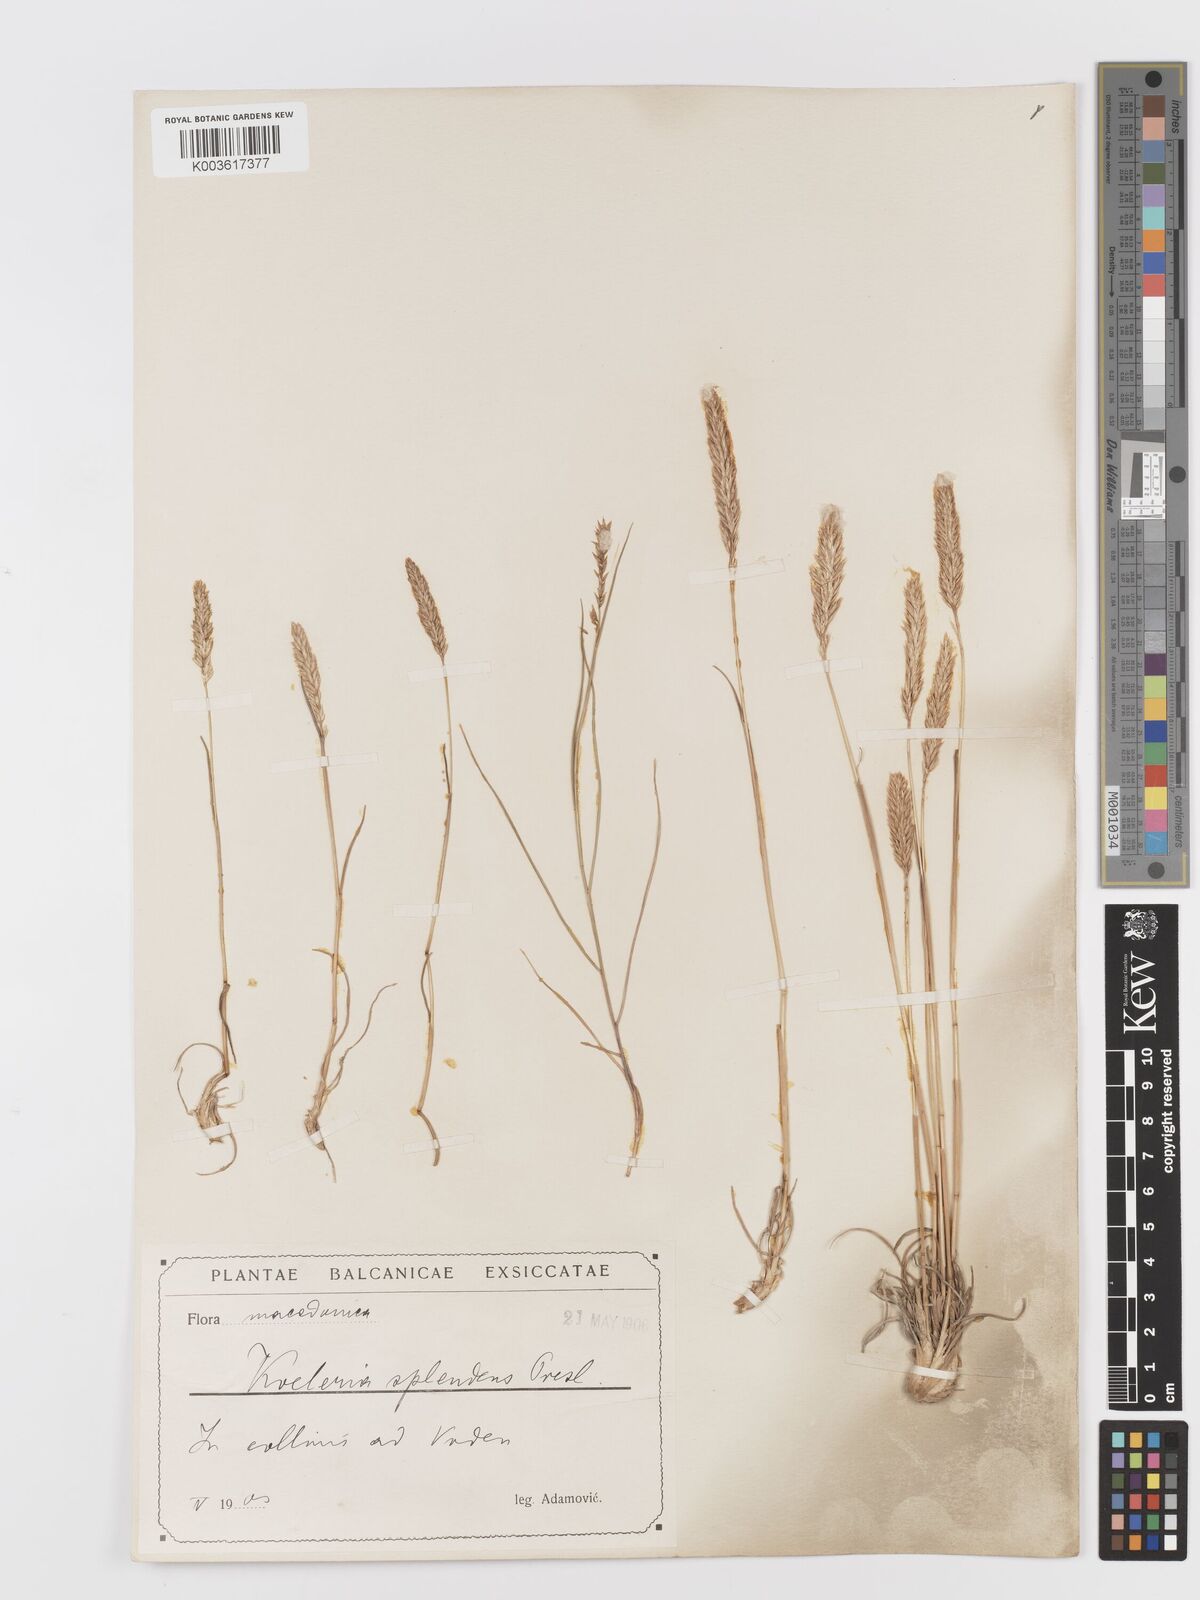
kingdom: Plantae
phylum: Tracheophyta
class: Liliopsida
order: Poales
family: Poaceae
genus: Koeleria
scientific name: Koeleria splendens
